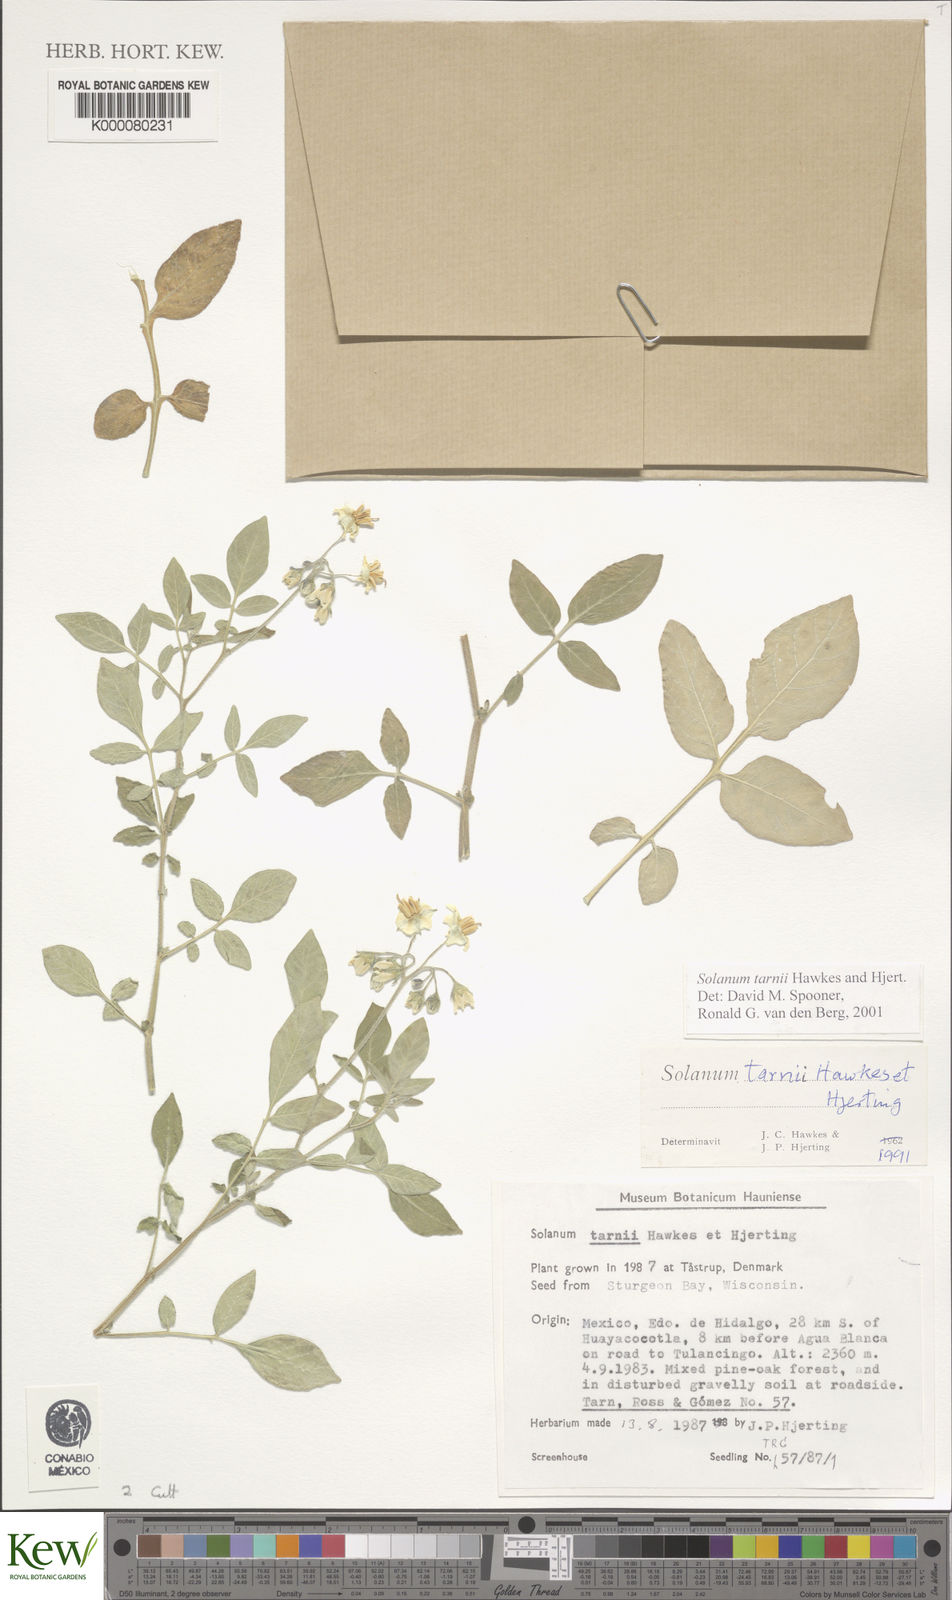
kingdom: Plantae
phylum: Tracheophyta
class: Magnoliopsida
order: Solanales
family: Solanaceae
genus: Solanum
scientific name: Solanum tarnii
